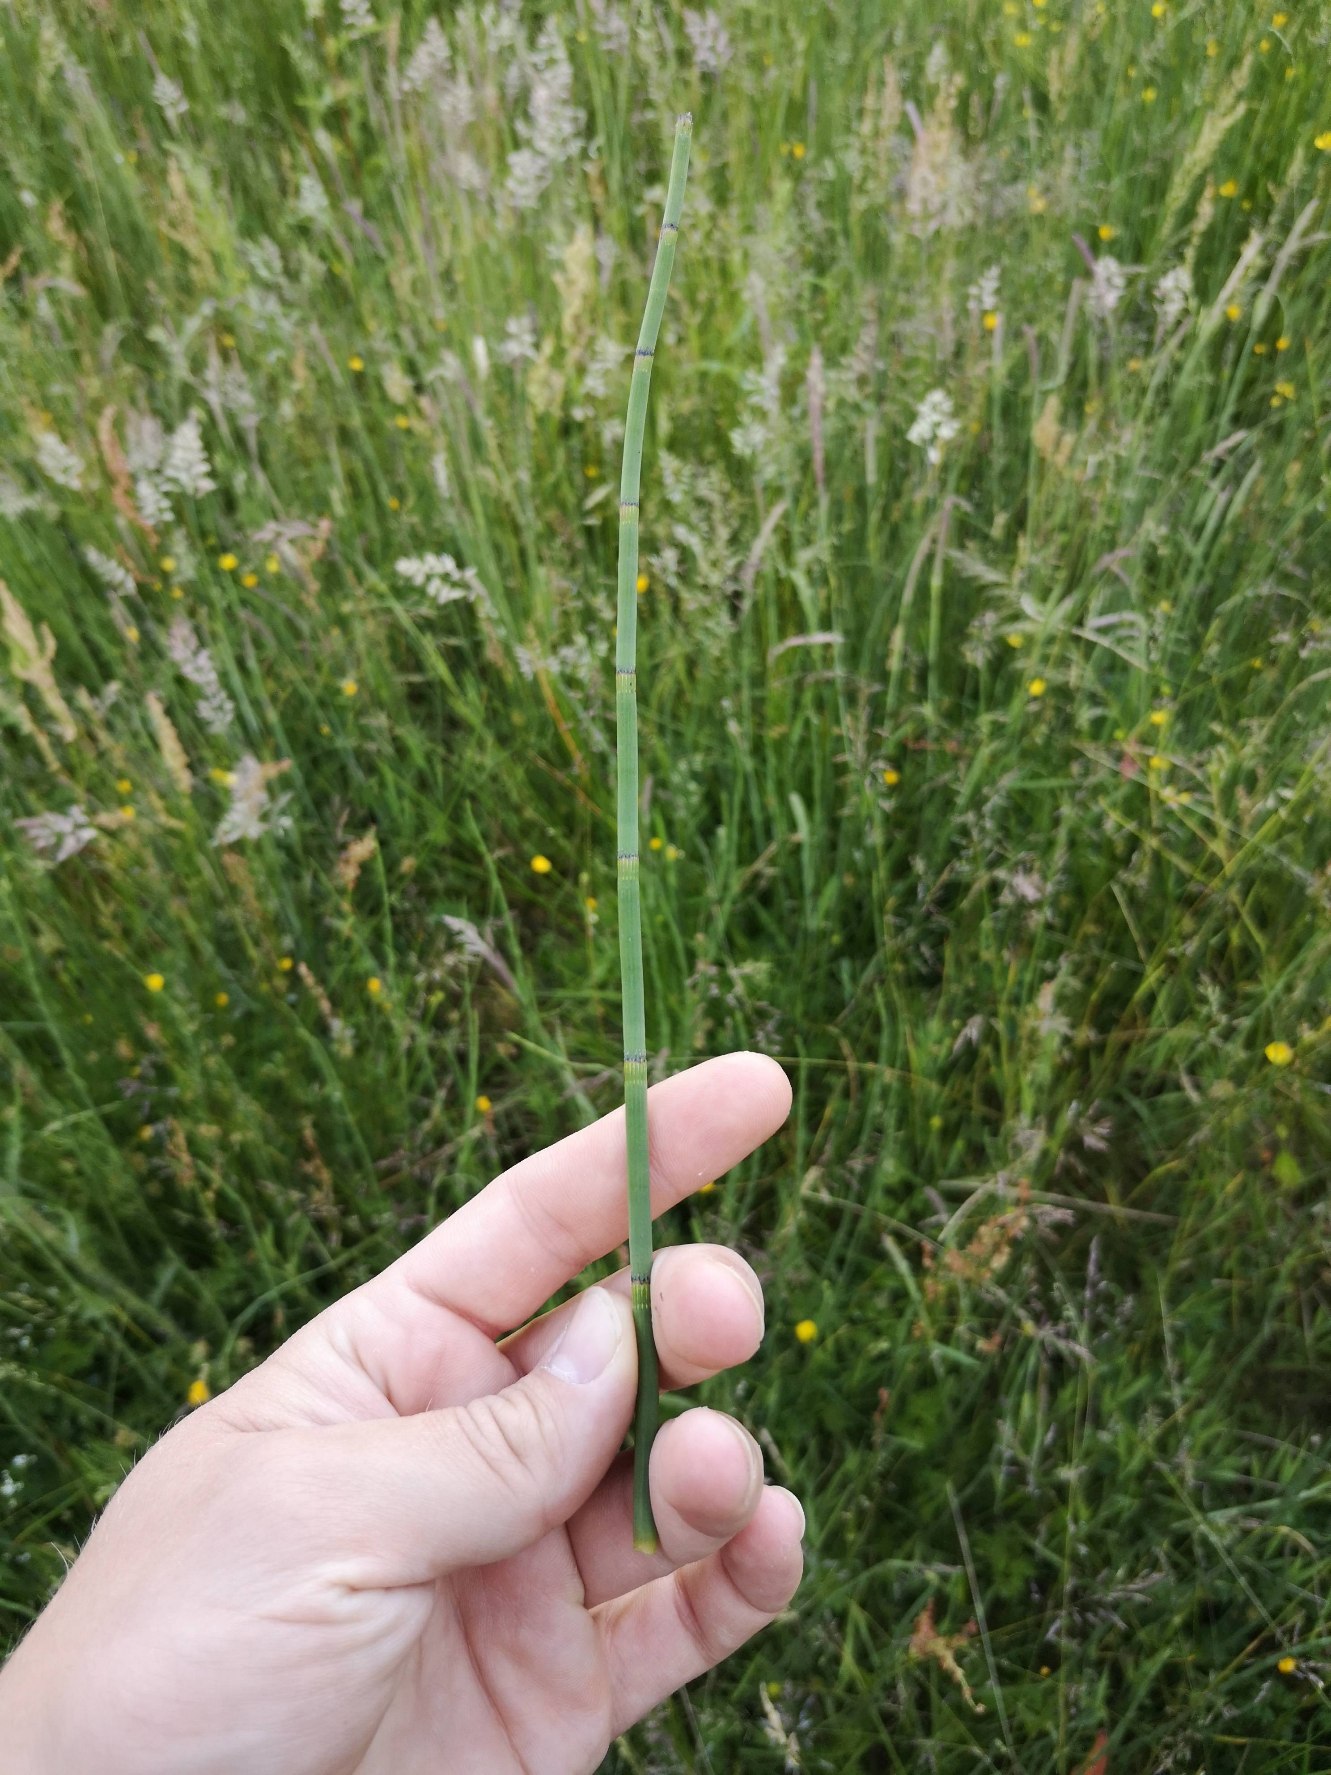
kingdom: Plantae
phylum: Tracheophyta
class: Polypodiopsida
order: Equisetales
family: Equisetaceae
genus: Equisetum
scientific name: Equisetum fluviatile
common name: Dynd-padderok
